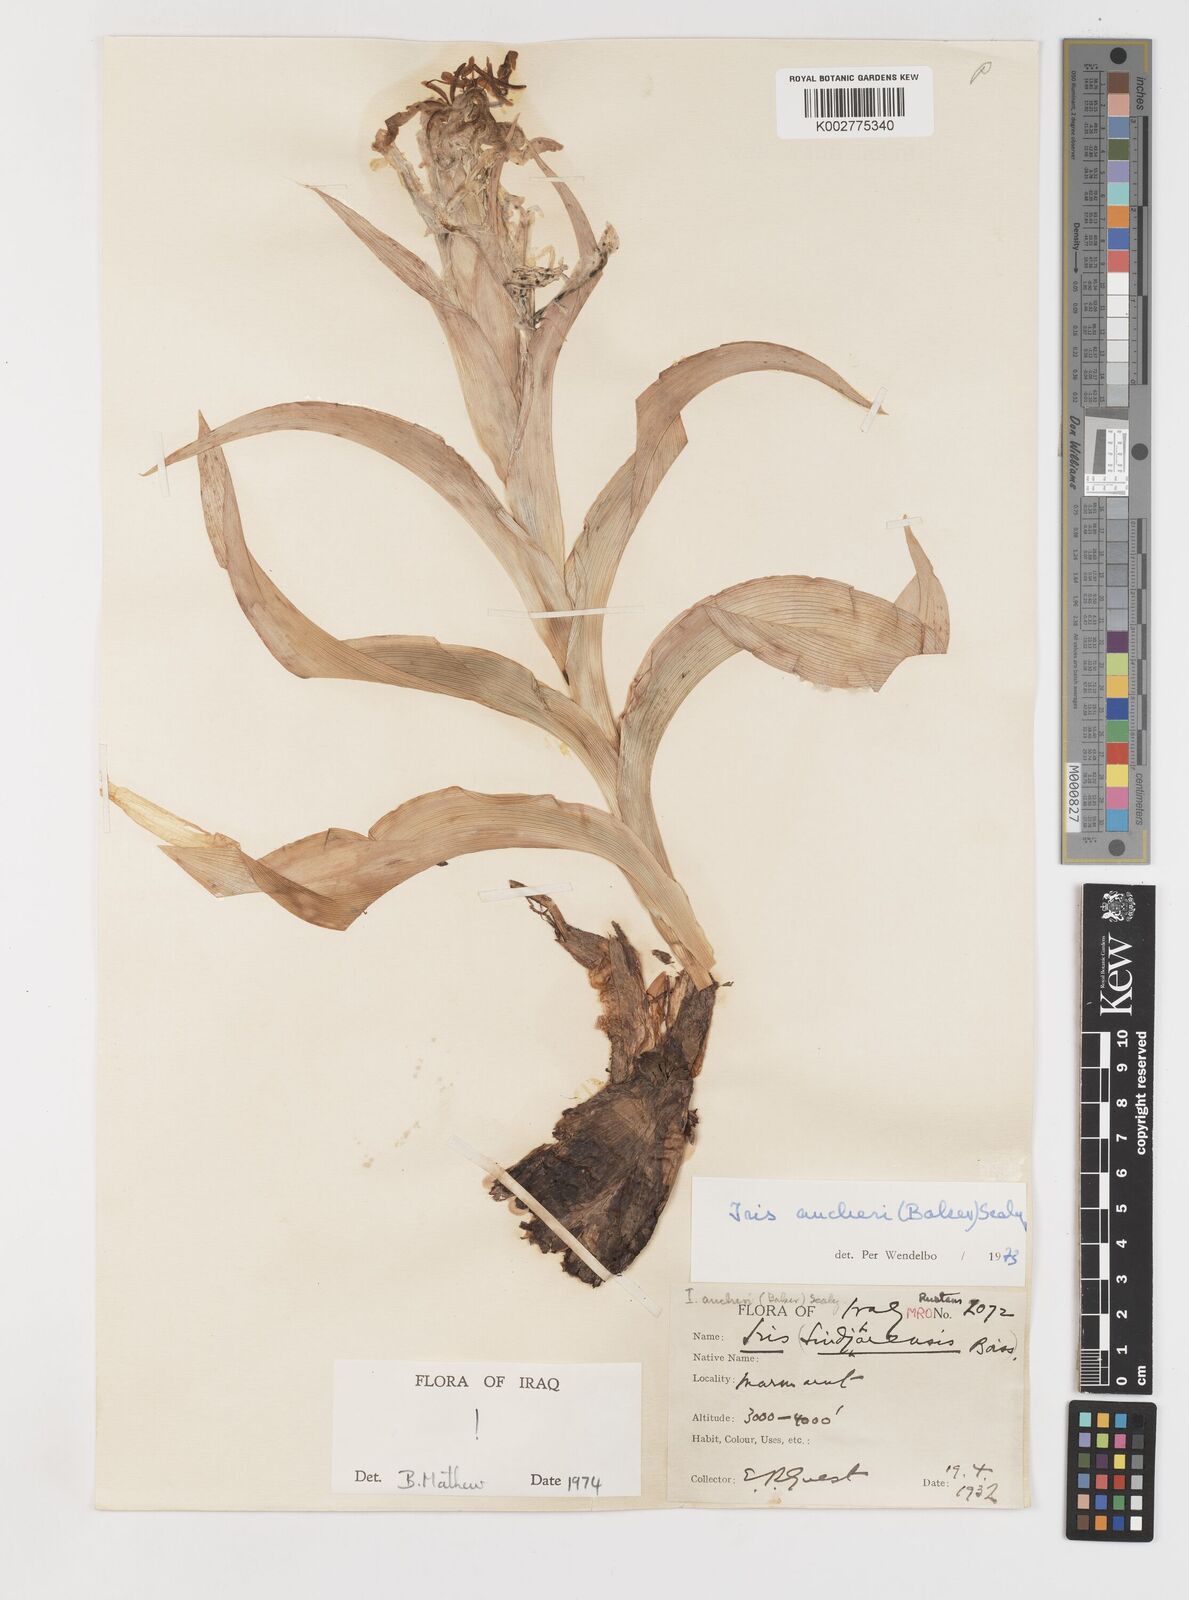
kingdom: Plantae
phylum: Tracheophyta
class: Liliopsida
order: Asparagales
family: Iridaceae
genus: Iris
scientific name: Iris aucheri
